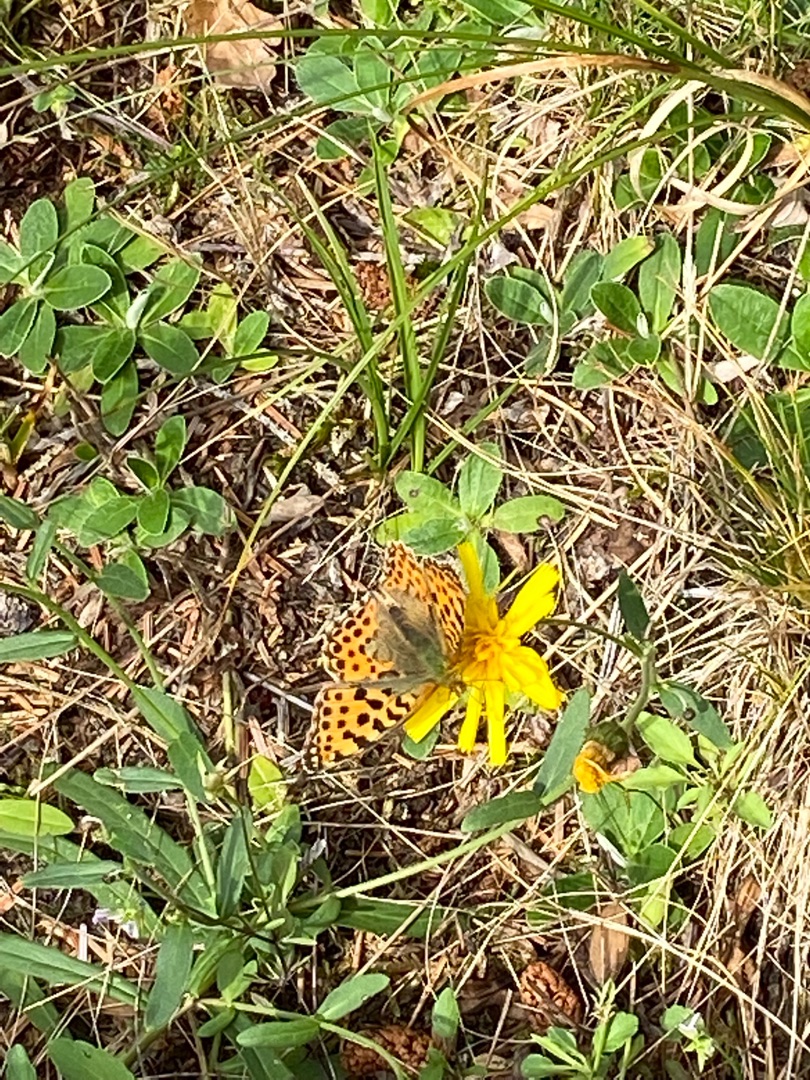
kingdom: Animalia
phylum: Arthropoda
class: Insecta
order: Lepidoptera
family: Nymphalidae
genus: Issoria
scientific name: Issoria lathonia
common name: Storplettet perlemorsommerfugl
